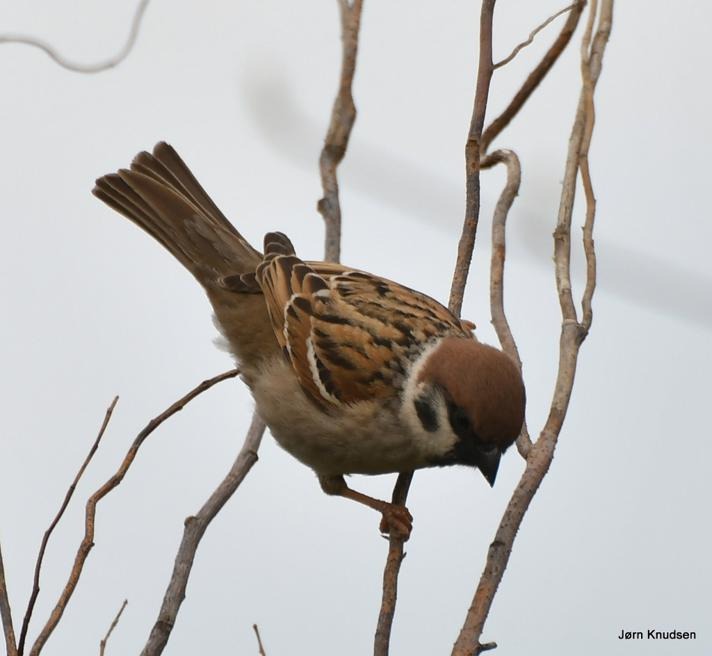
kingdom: Animalia
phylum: Chordata
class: Aves
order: Passeriformes
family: Passeridae
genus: Passer
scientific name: Passer montanus
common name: Skovspurv
